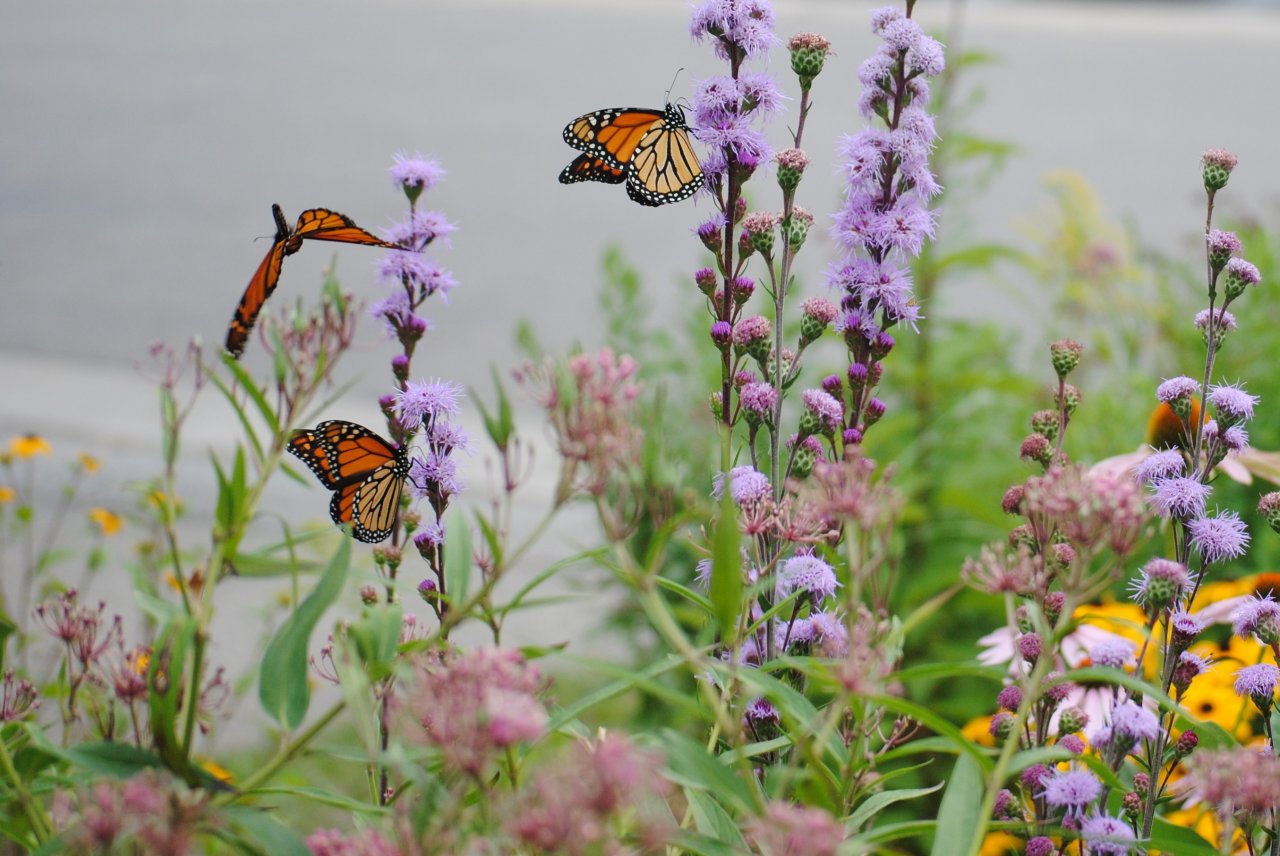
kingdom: Animalia
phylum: Arthropoda
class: Insecta
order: Lepidoptera
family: Nymphalidae
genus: Danaus
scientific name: Danaus plexippus
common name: Monarch
